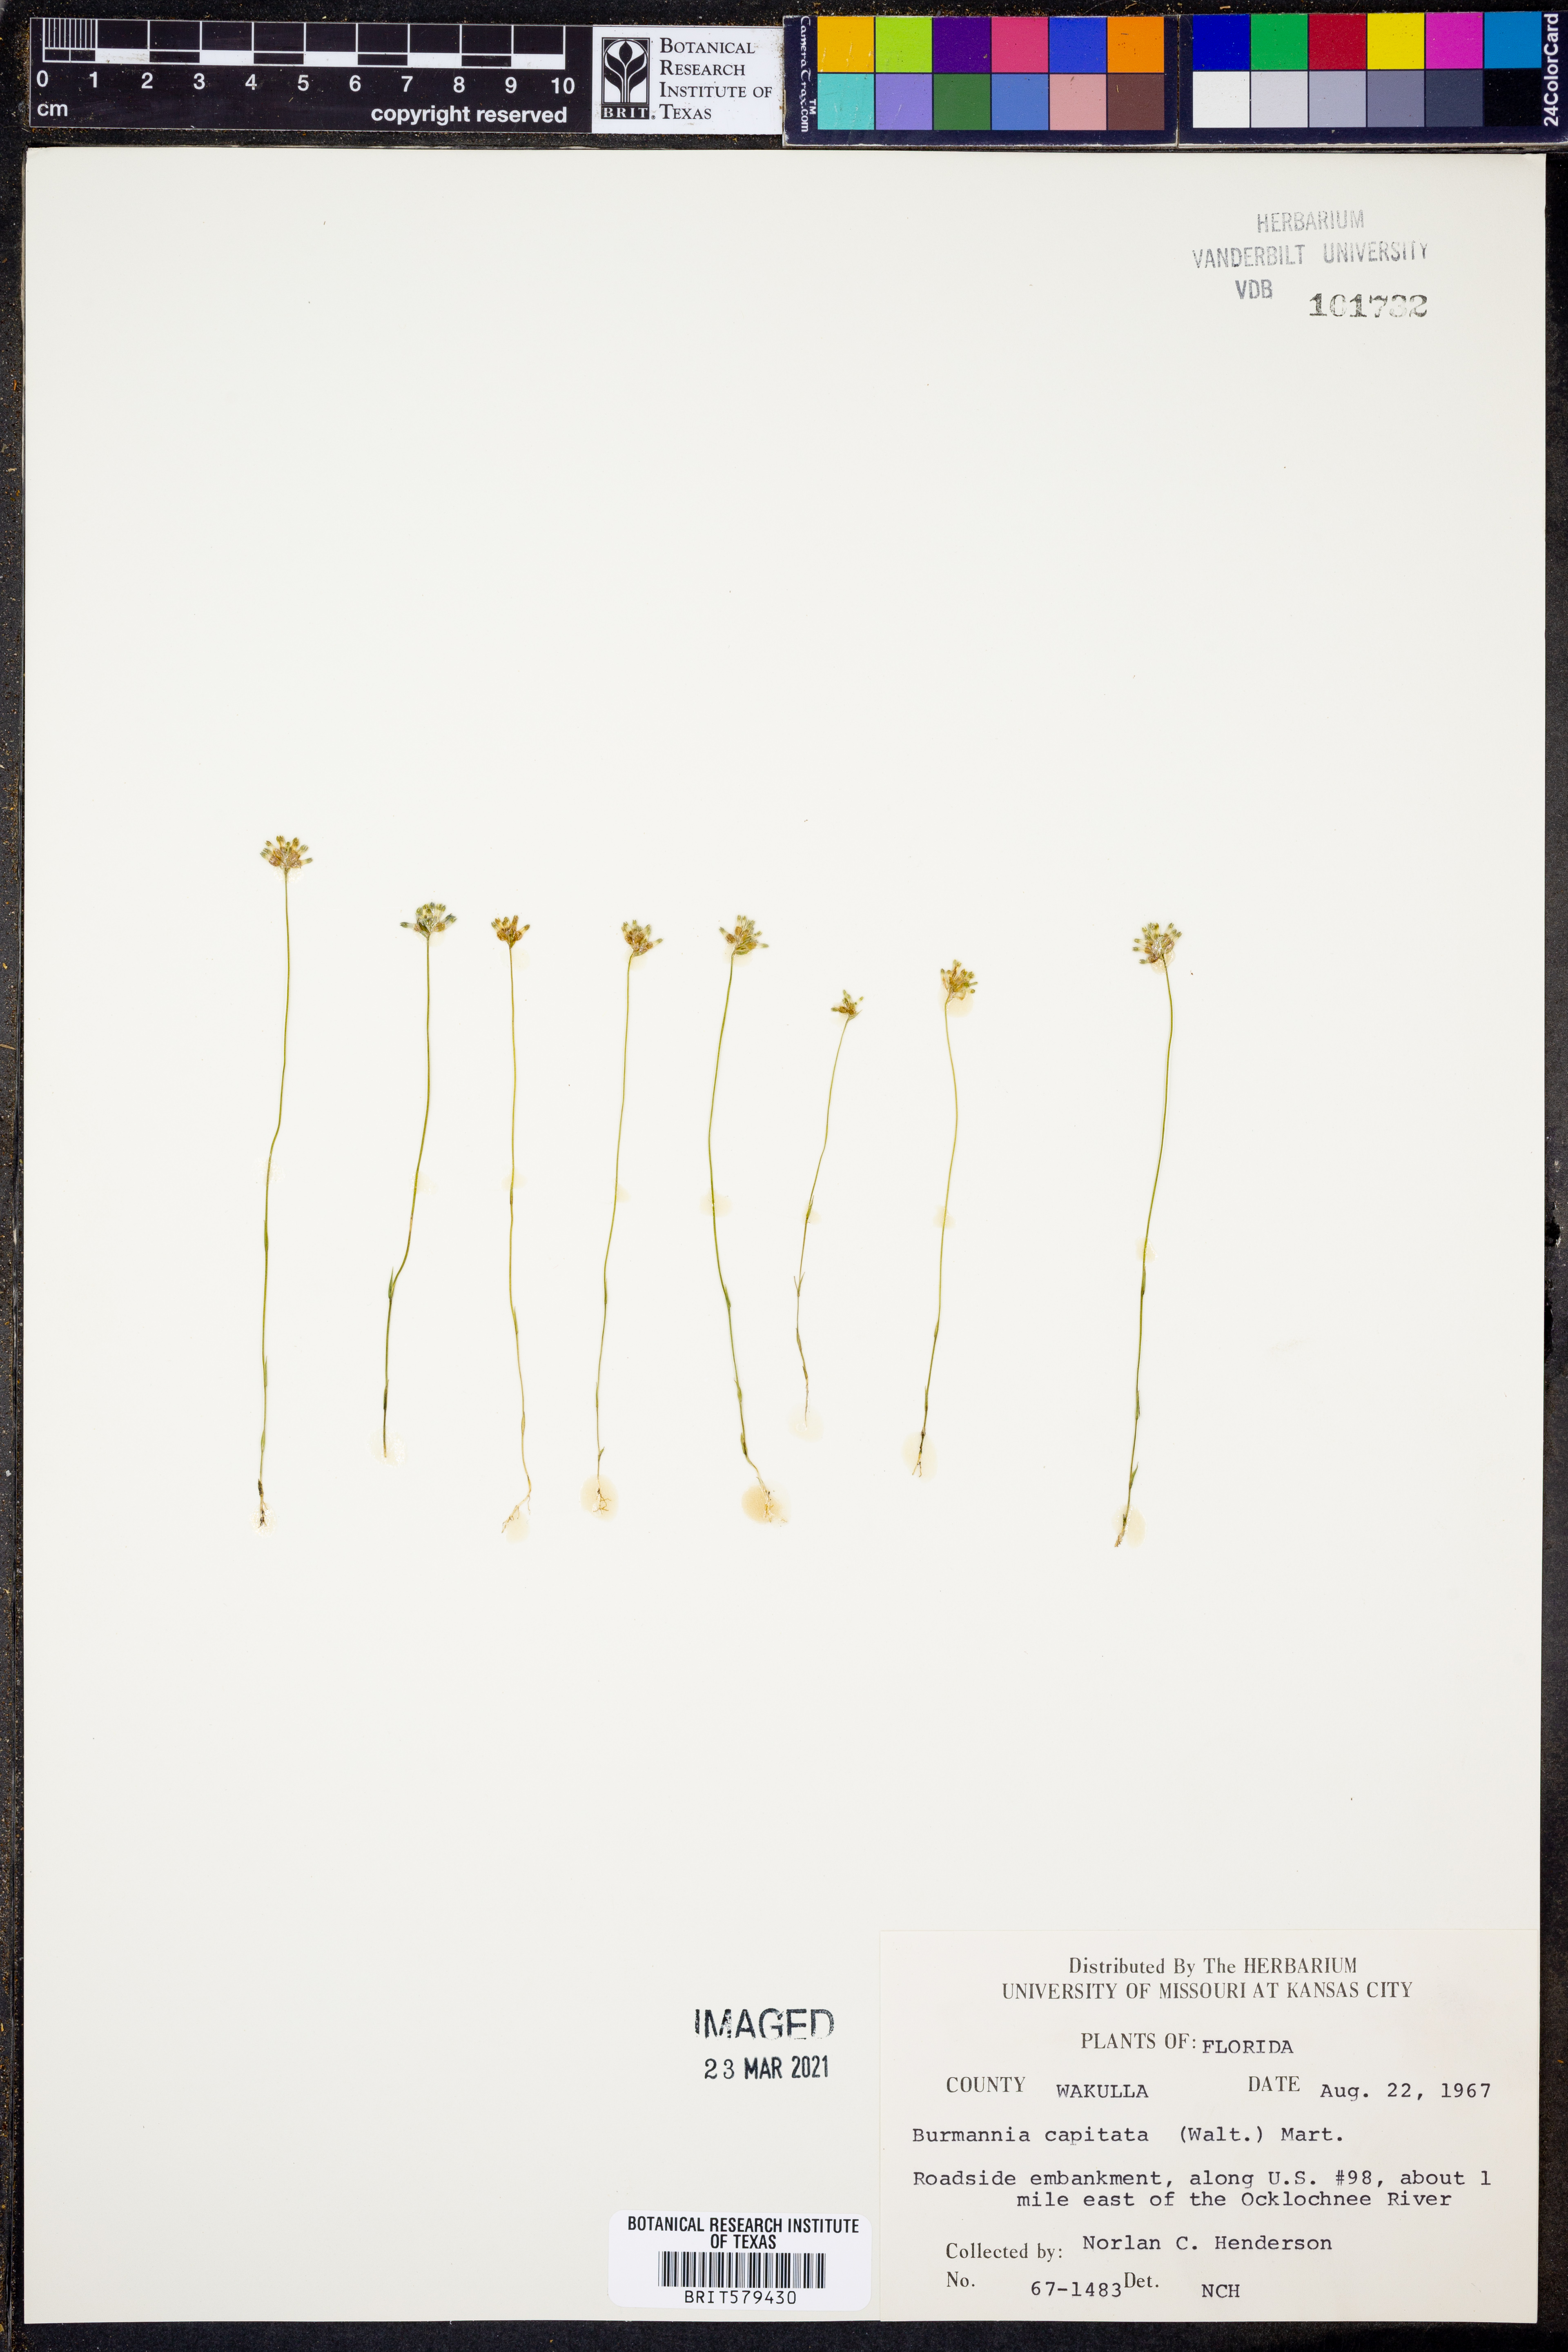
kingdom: Plantae
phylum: Tracheophyta
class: Liliopsida
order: Dioscoreales
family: Burmanniaceae
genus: Burmannia
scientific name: Burmannia capitata
